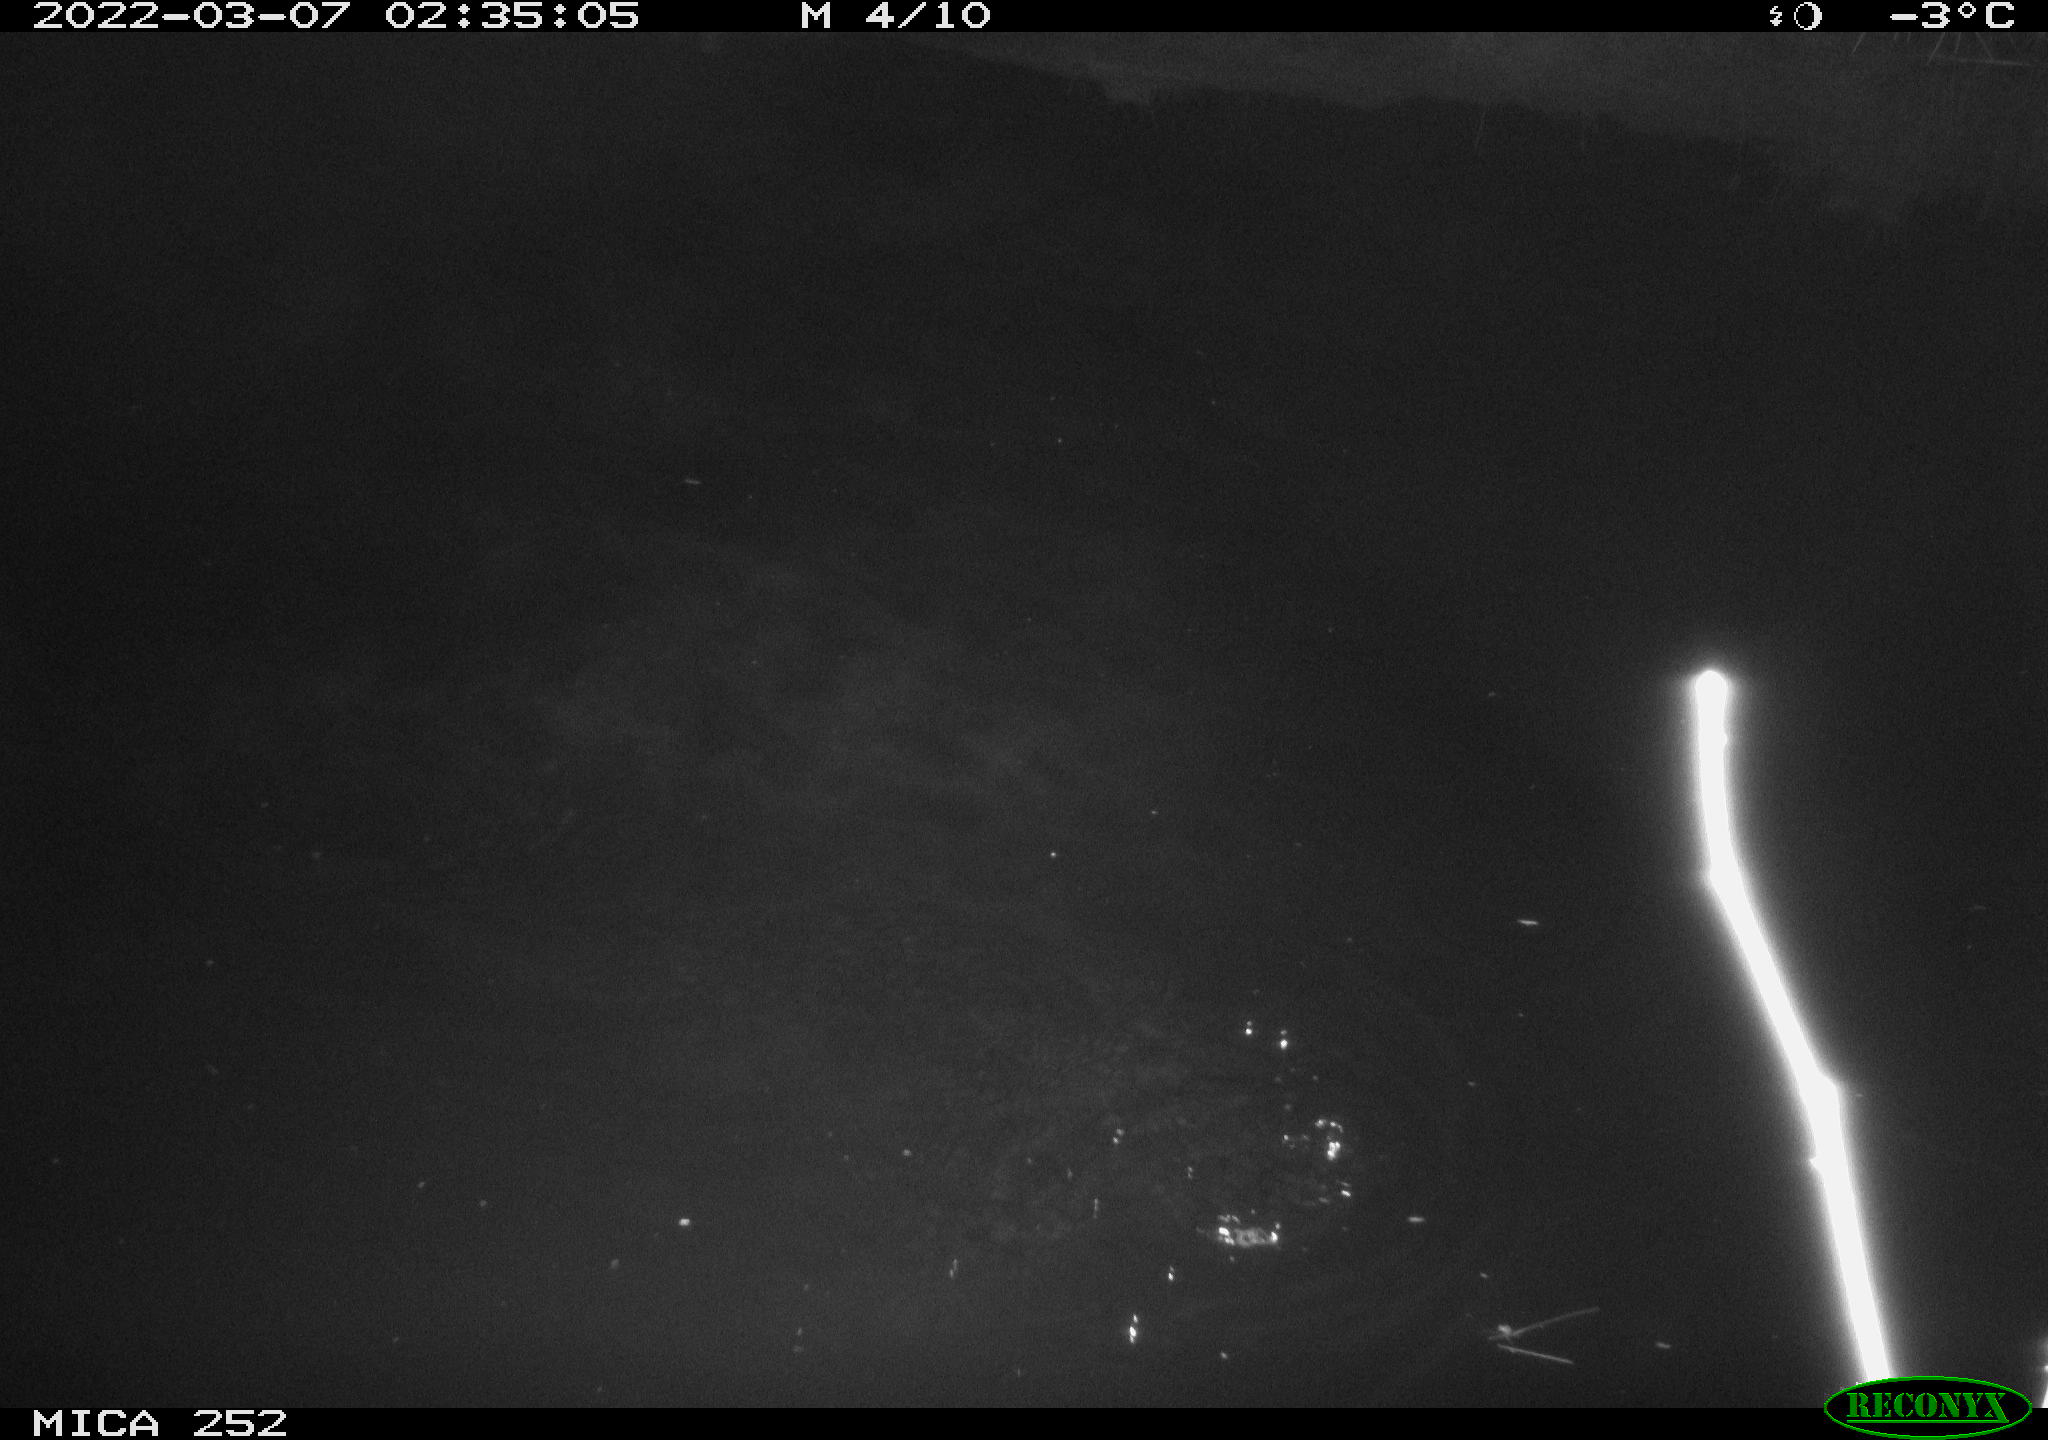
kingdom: Animalia
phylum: Chordata
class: Mammalia
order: Rodentia
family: Castoridae
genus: Castor
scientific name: Castor fiber
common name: Eurasian beaver
